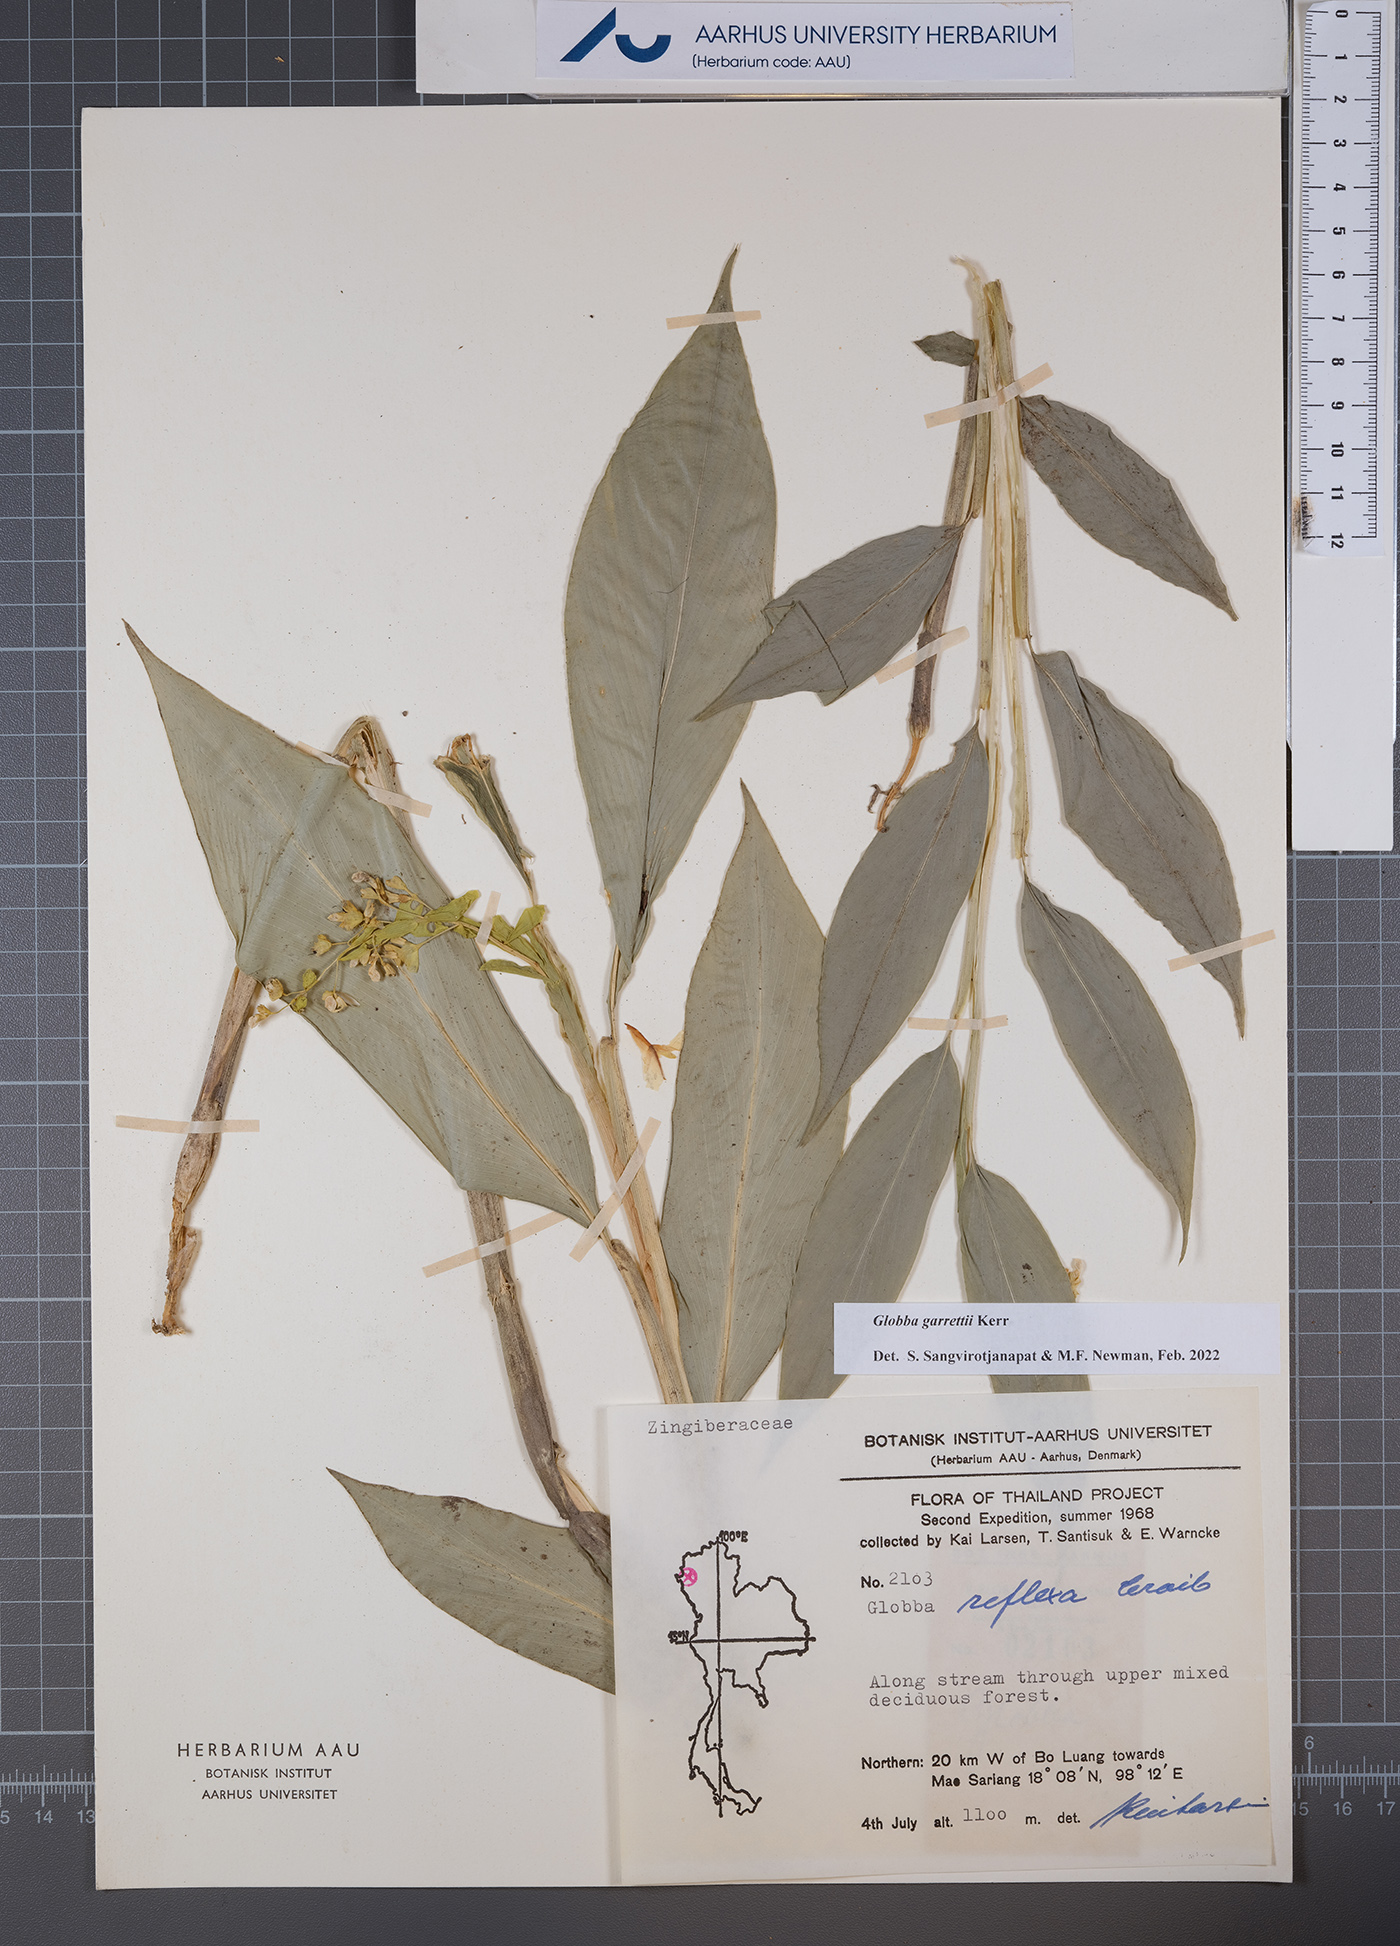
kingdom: Plantae
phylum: Tracheophyta
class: Liliopsida
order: Zingiberales
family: Zingiberaceae
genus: Globba
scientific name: Globba garrettii
